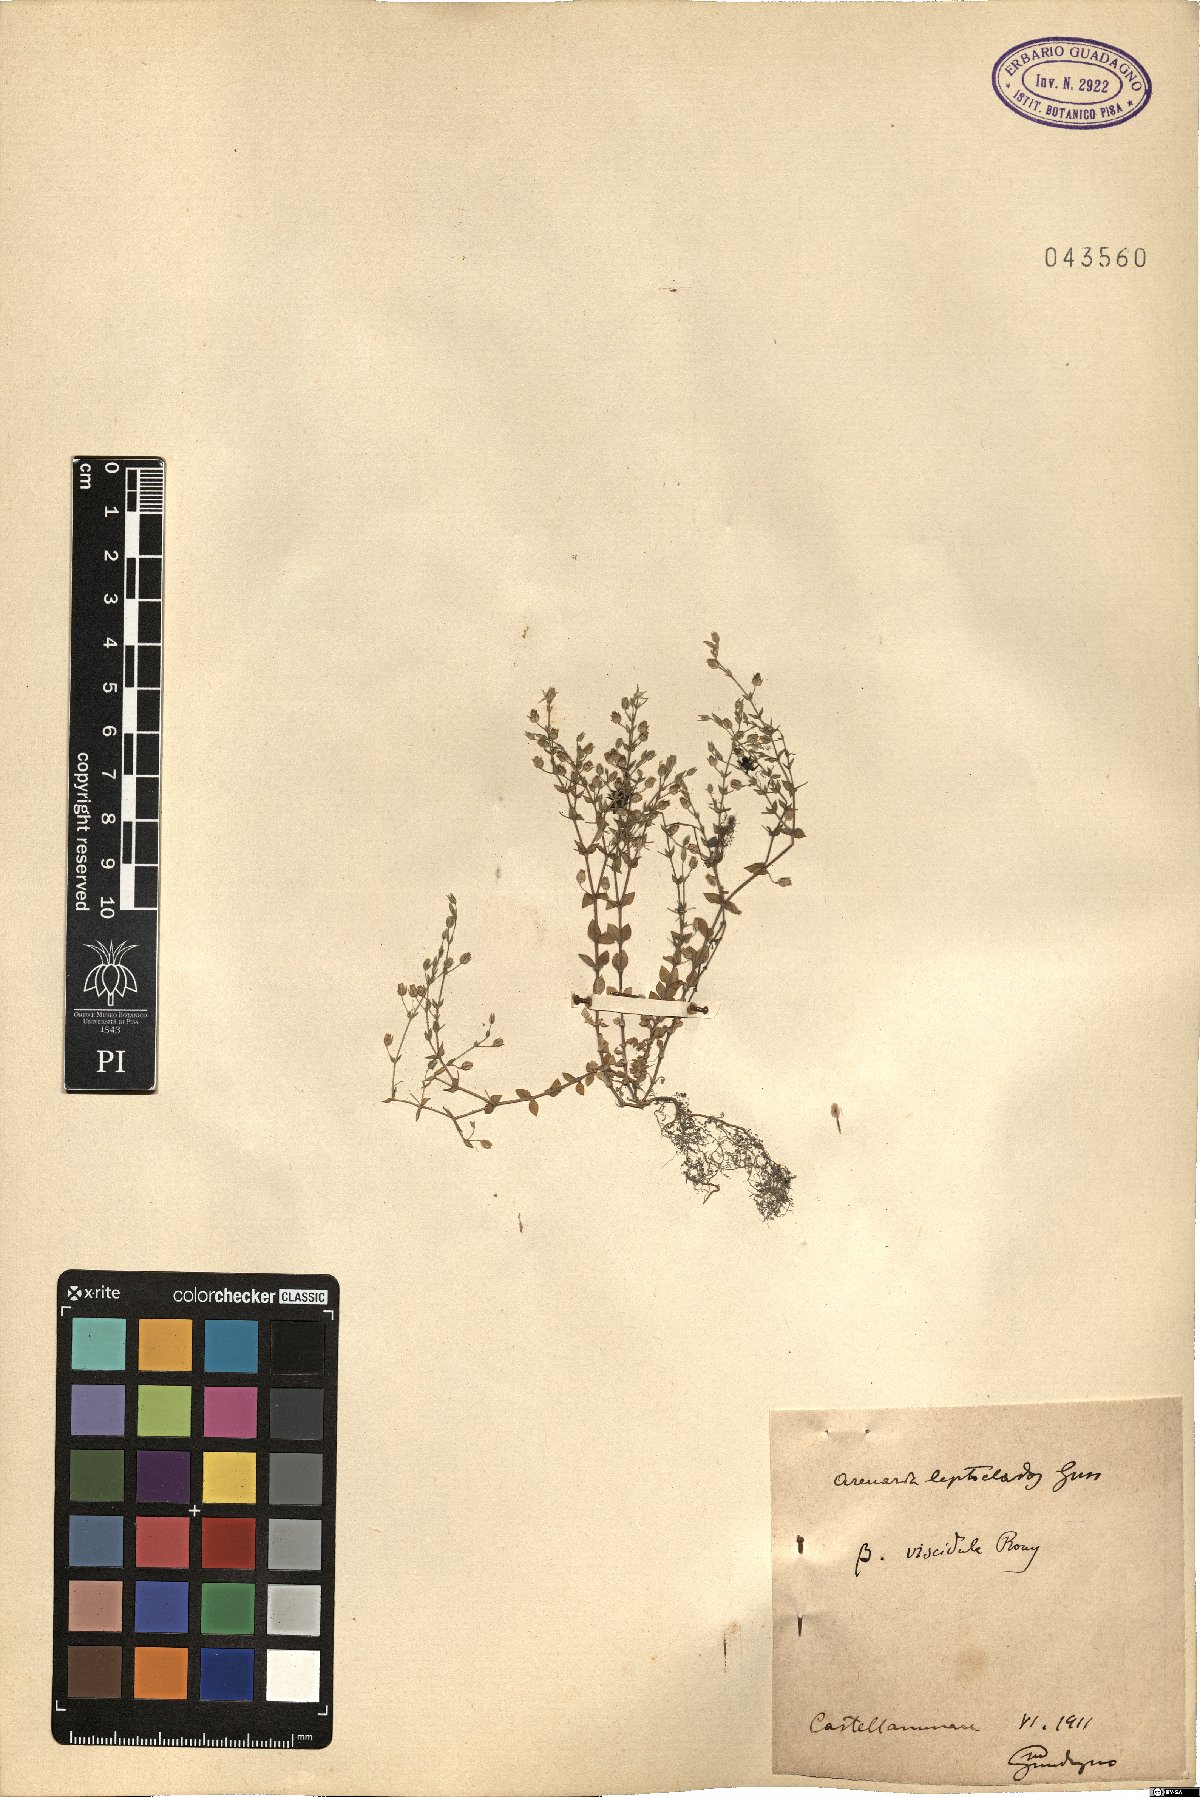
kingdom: Plantae
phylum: Tracheophyta
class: Magnoliopsida
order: Caryophyllales
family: Caryophyllaceae
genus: Arenaria
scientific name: Arenaria leptoclados
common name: Thyme-leaved sandwort
